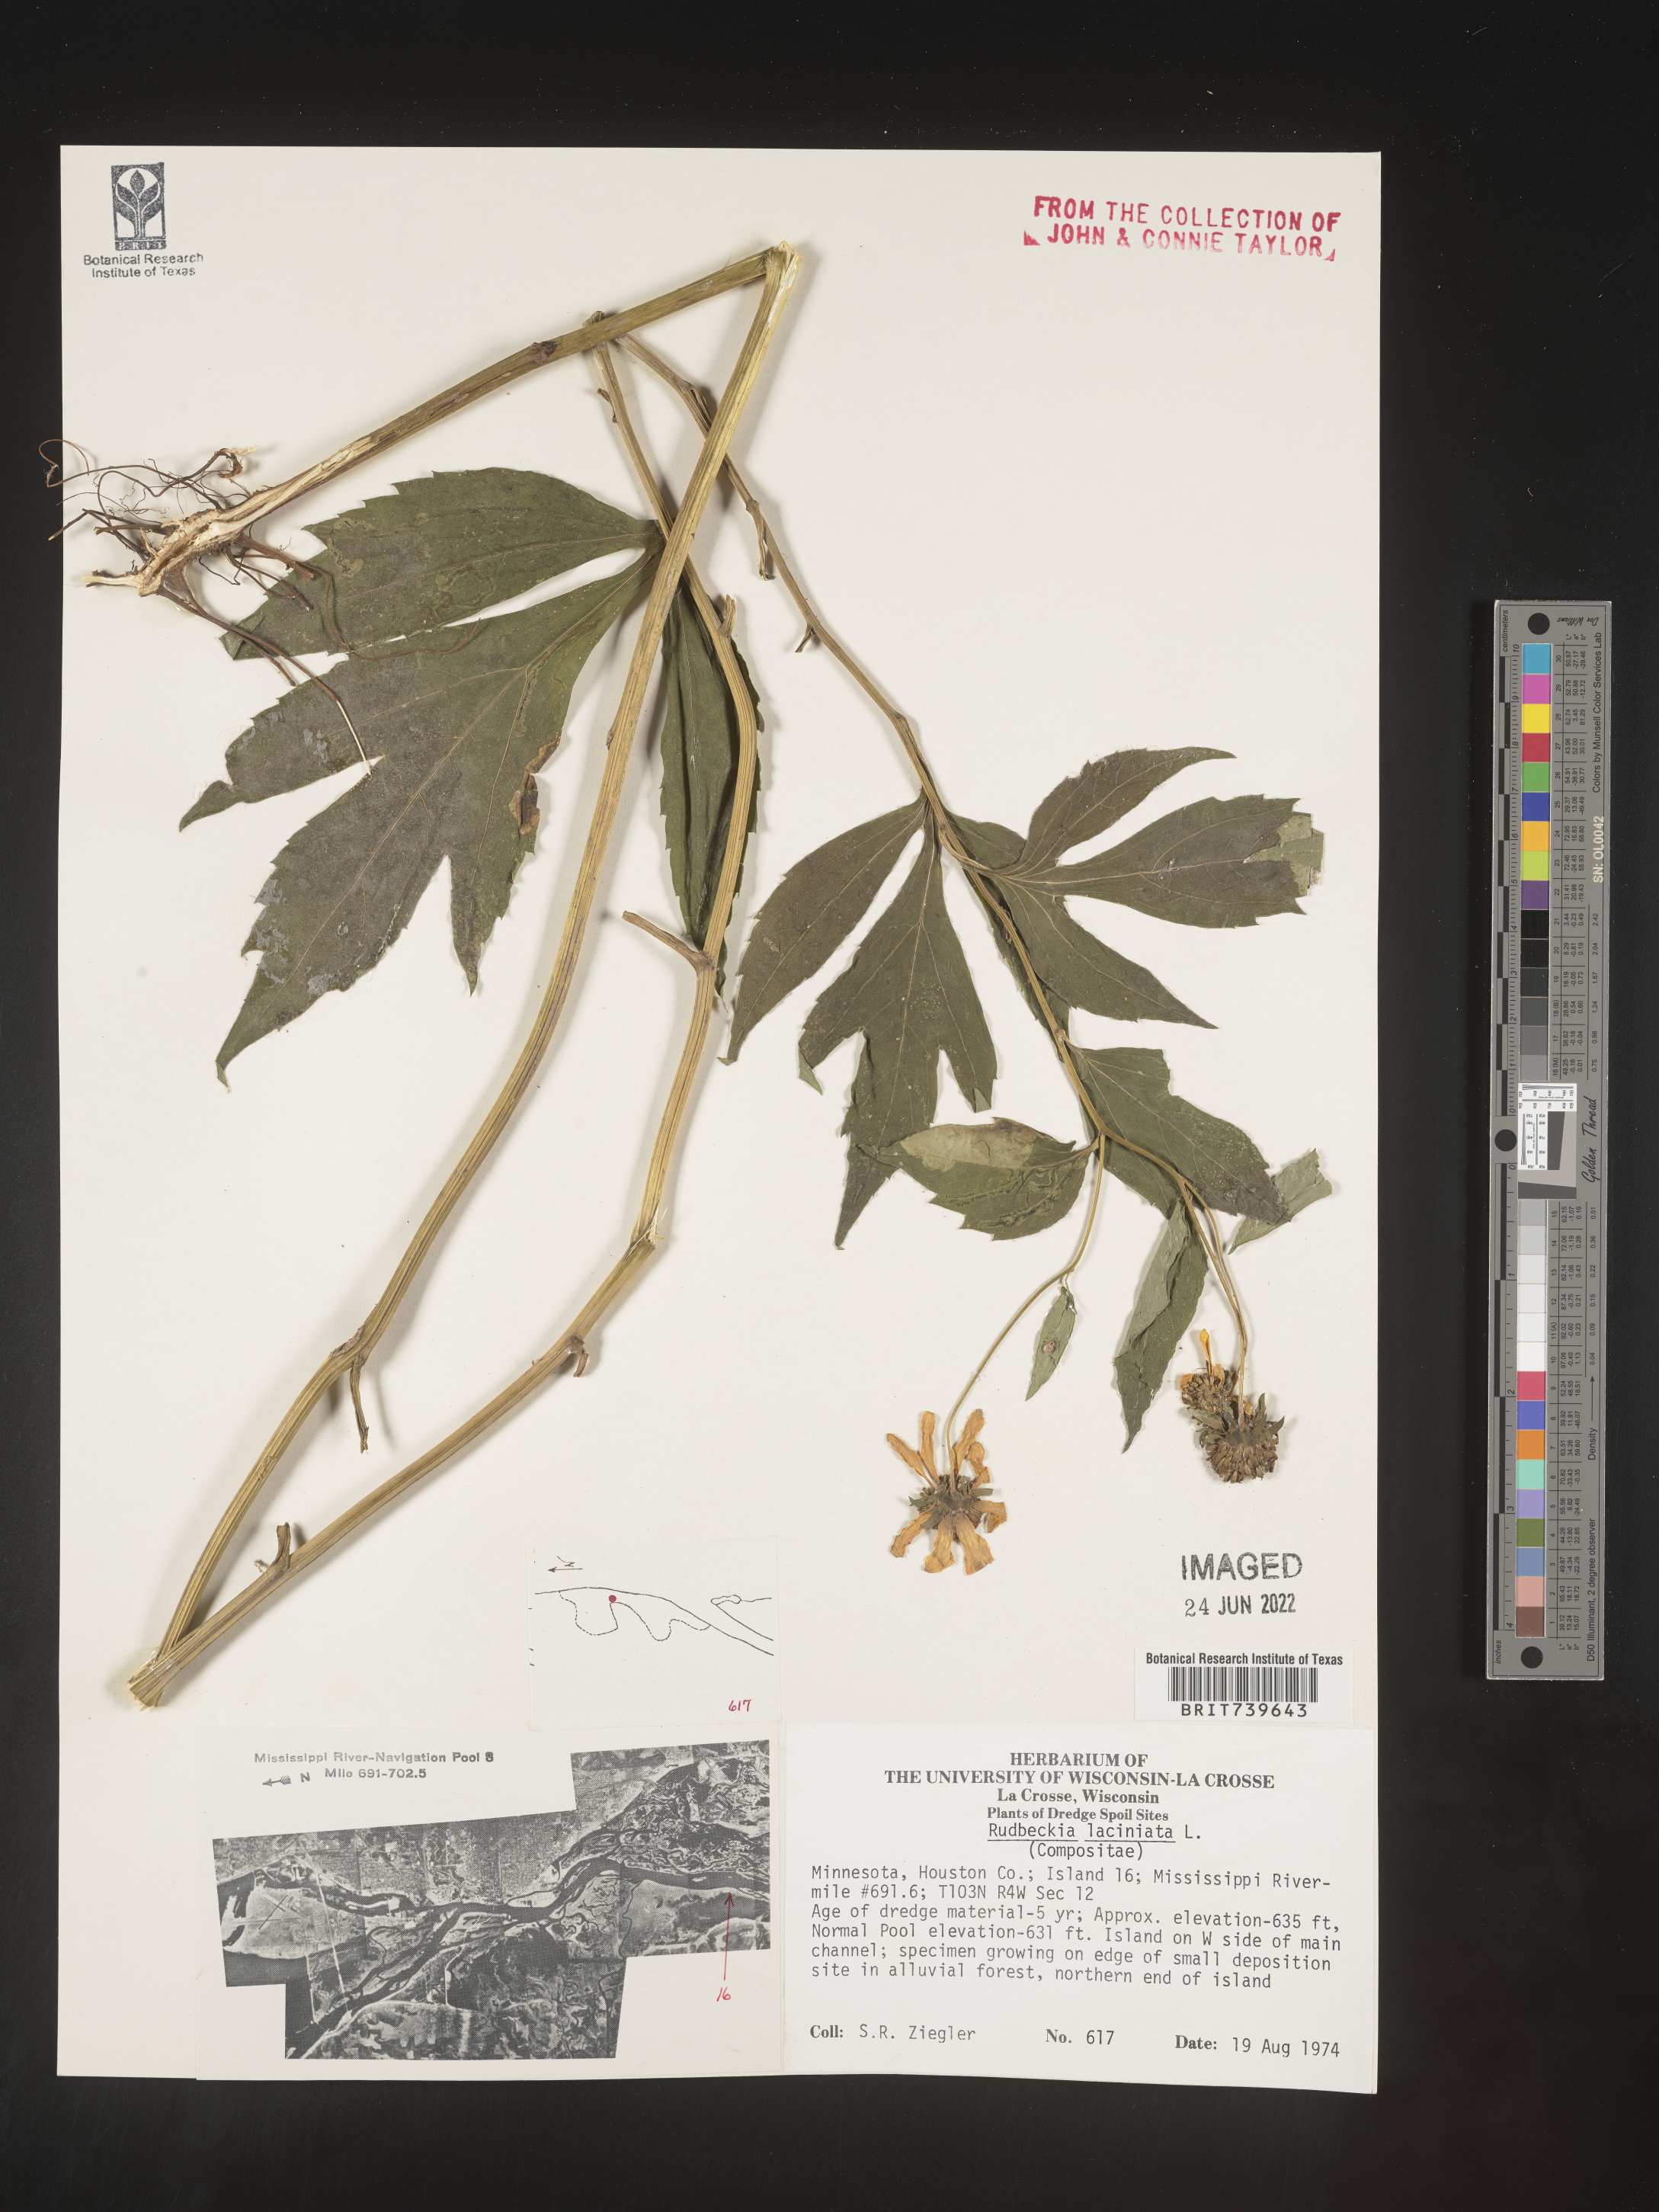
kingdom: Plantae
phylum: Tracheophyta
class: Magnoliopsida
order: Asterales
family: Asteraceae
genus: Rudbeckia
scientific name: Rudbeckia laciniata
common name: Coneflower
